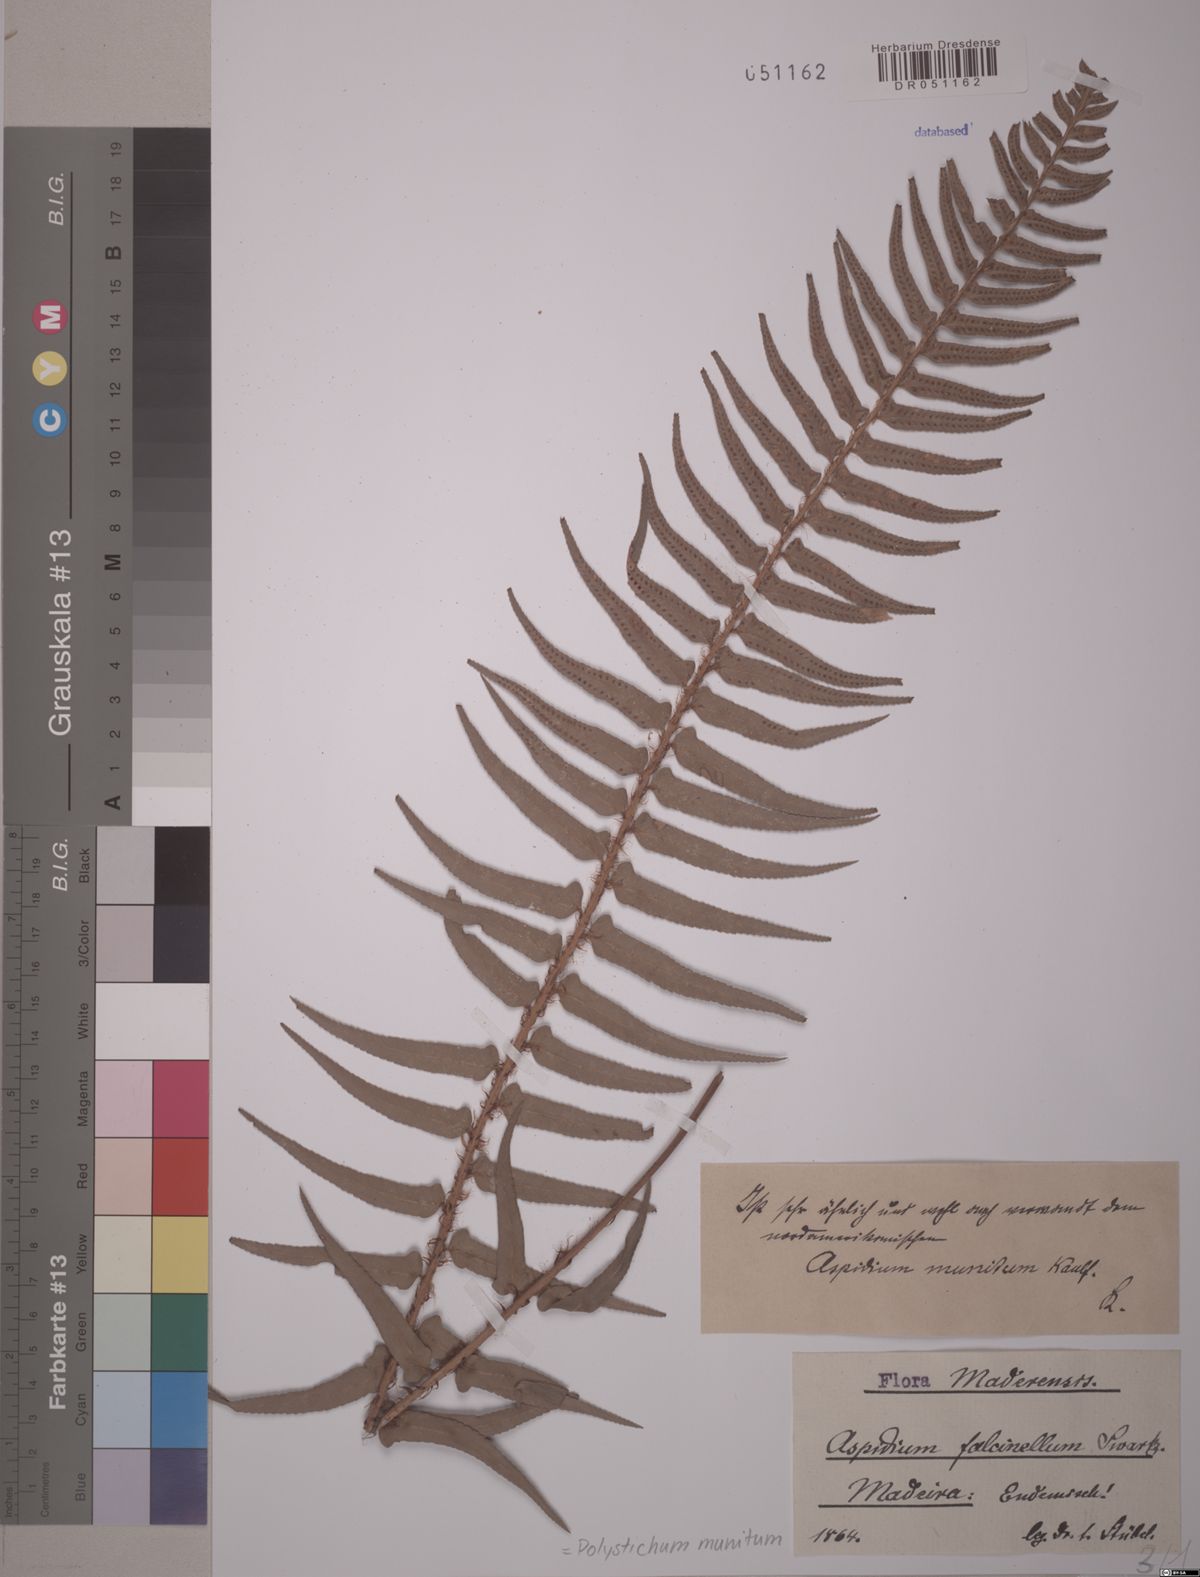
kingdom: Plantae
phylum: Tracheophyta
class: Polypodiopsida
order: Polypodiales
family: Dryopteridaceae
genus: Polystichum
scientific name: Polystichum munitum
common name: Western sword-fern
